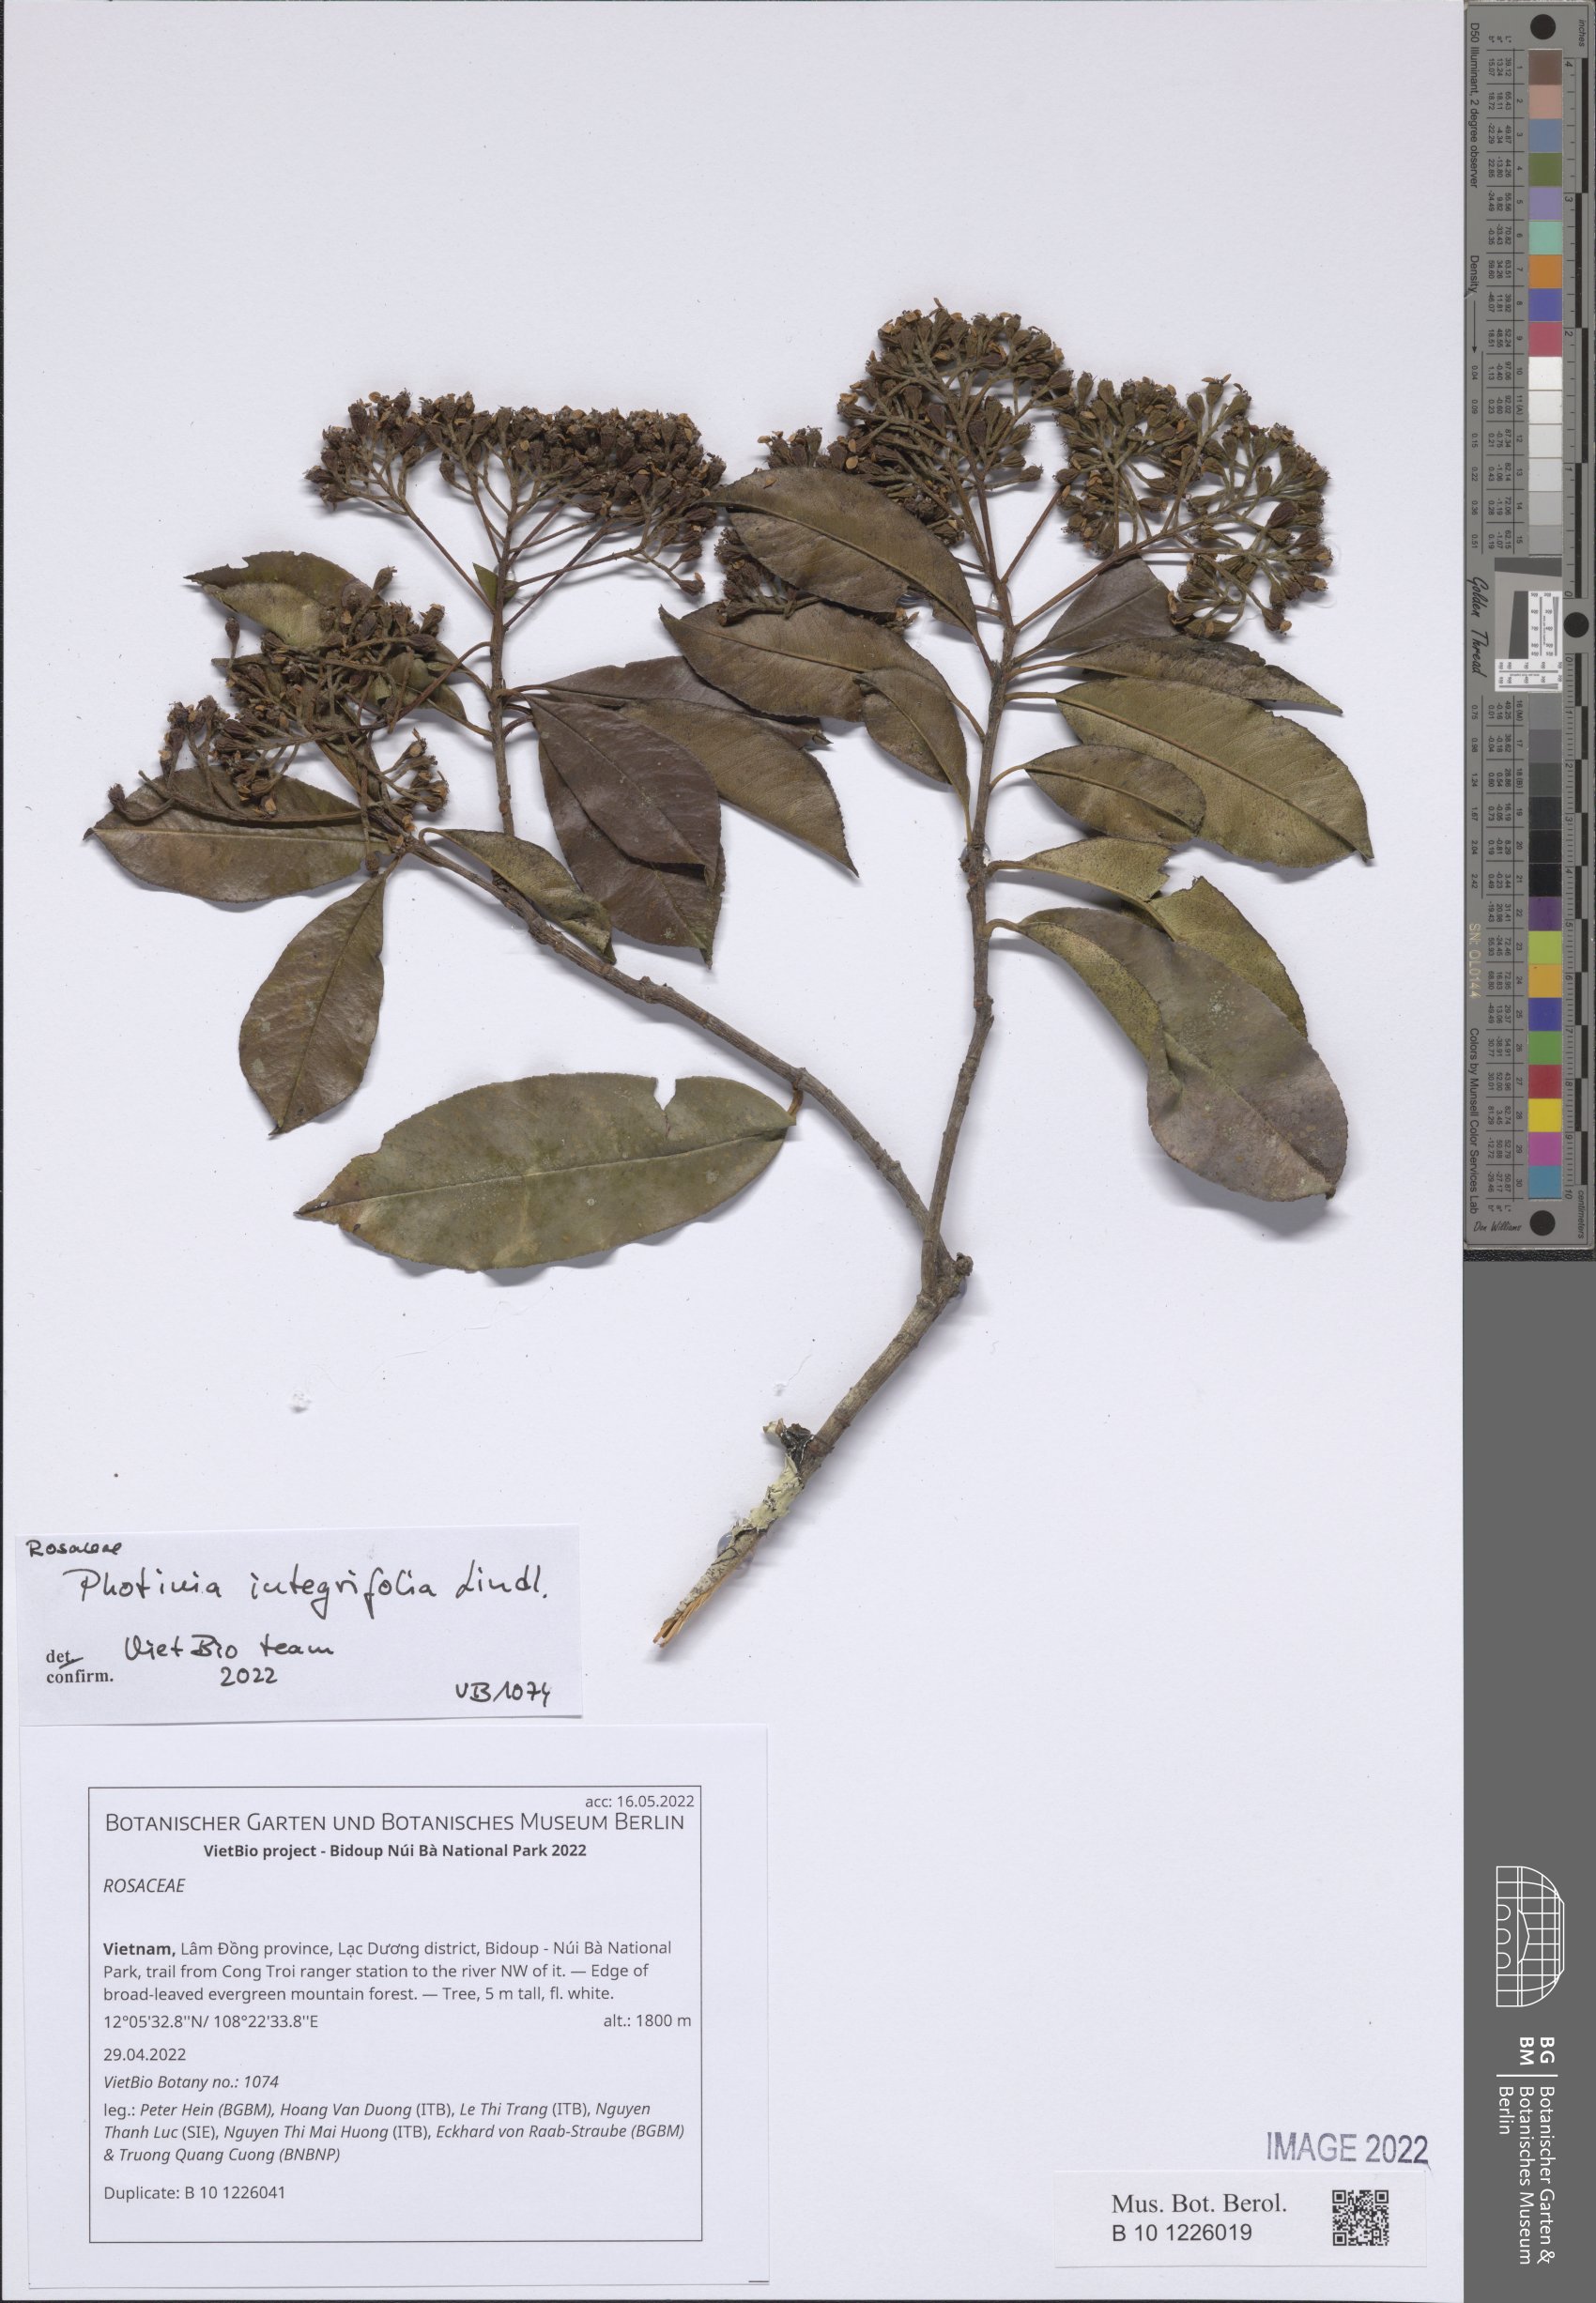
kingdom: Plantae
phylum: Tracheophyta
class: Magnoliopsida
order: Rosales
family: Rosaceae
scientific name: Rosaceae
